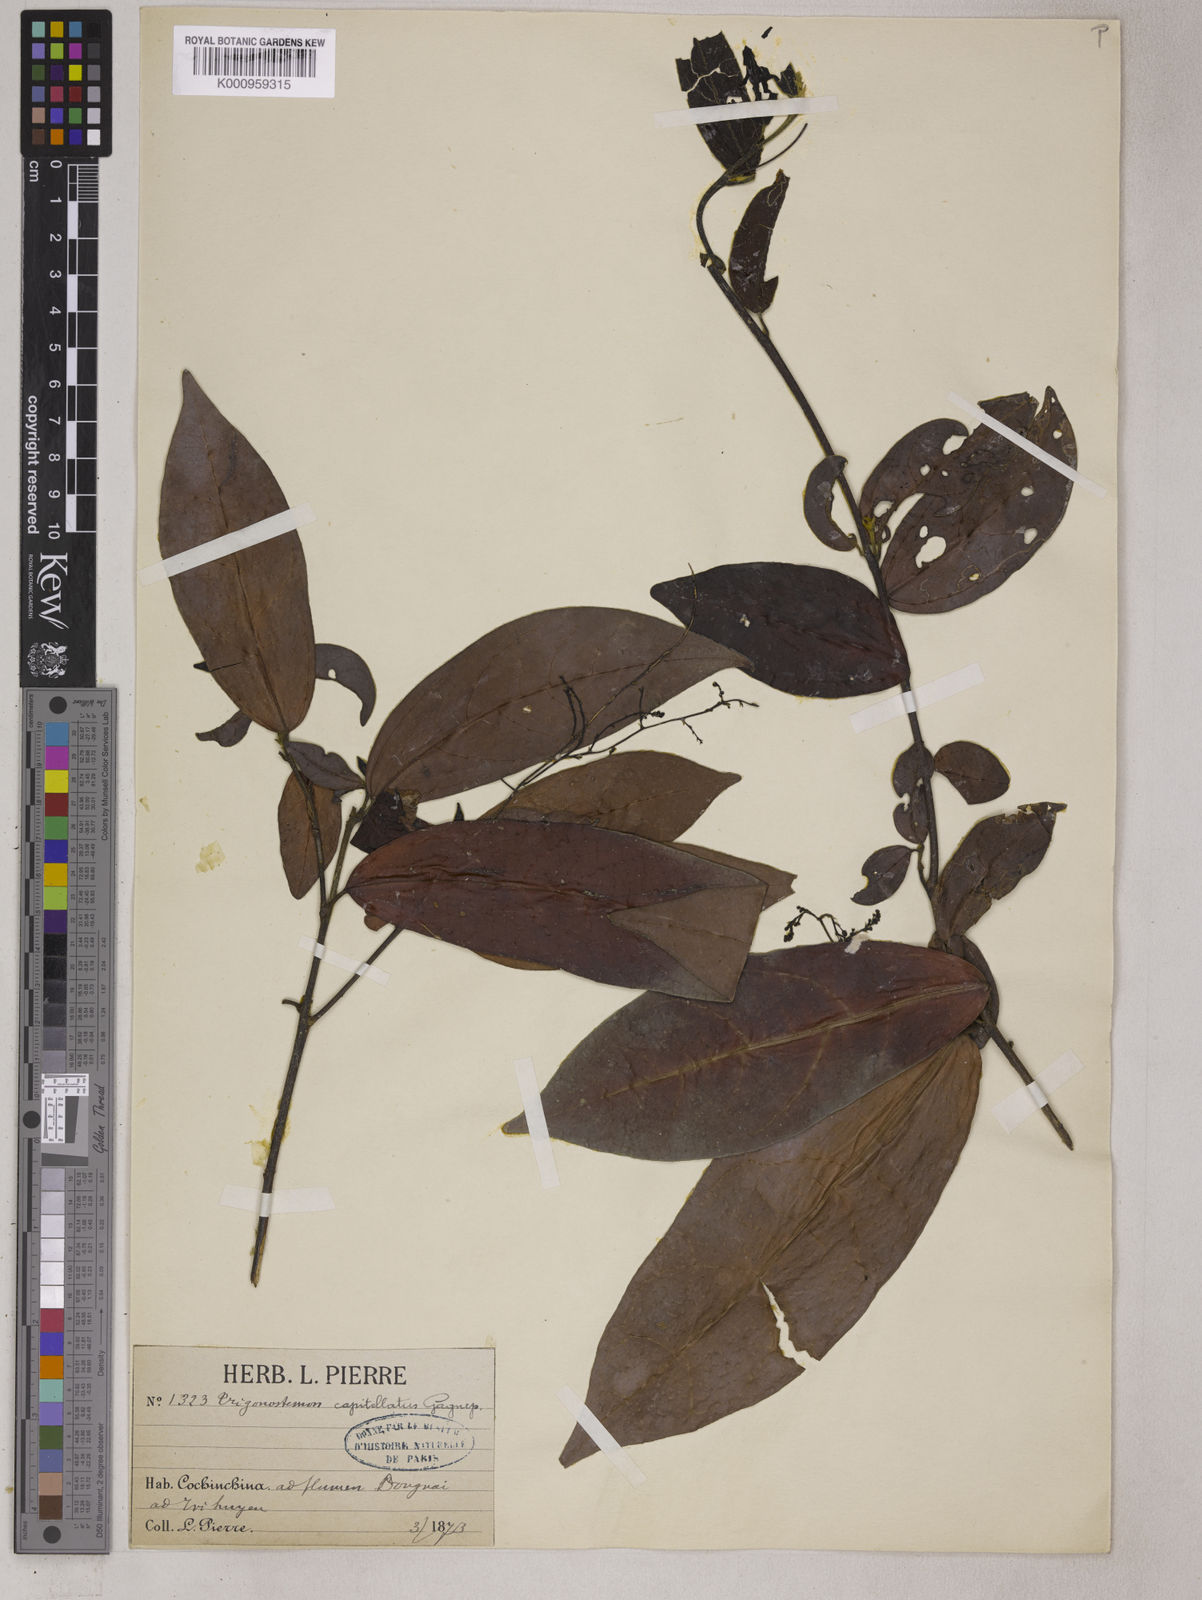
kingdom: Plantae
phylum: Tracheophyta
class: Magnoliopsida
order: Malpighiales
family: Euphorbiaceae
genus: Trigonostemon
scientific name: Trigonostemon capitellatus
